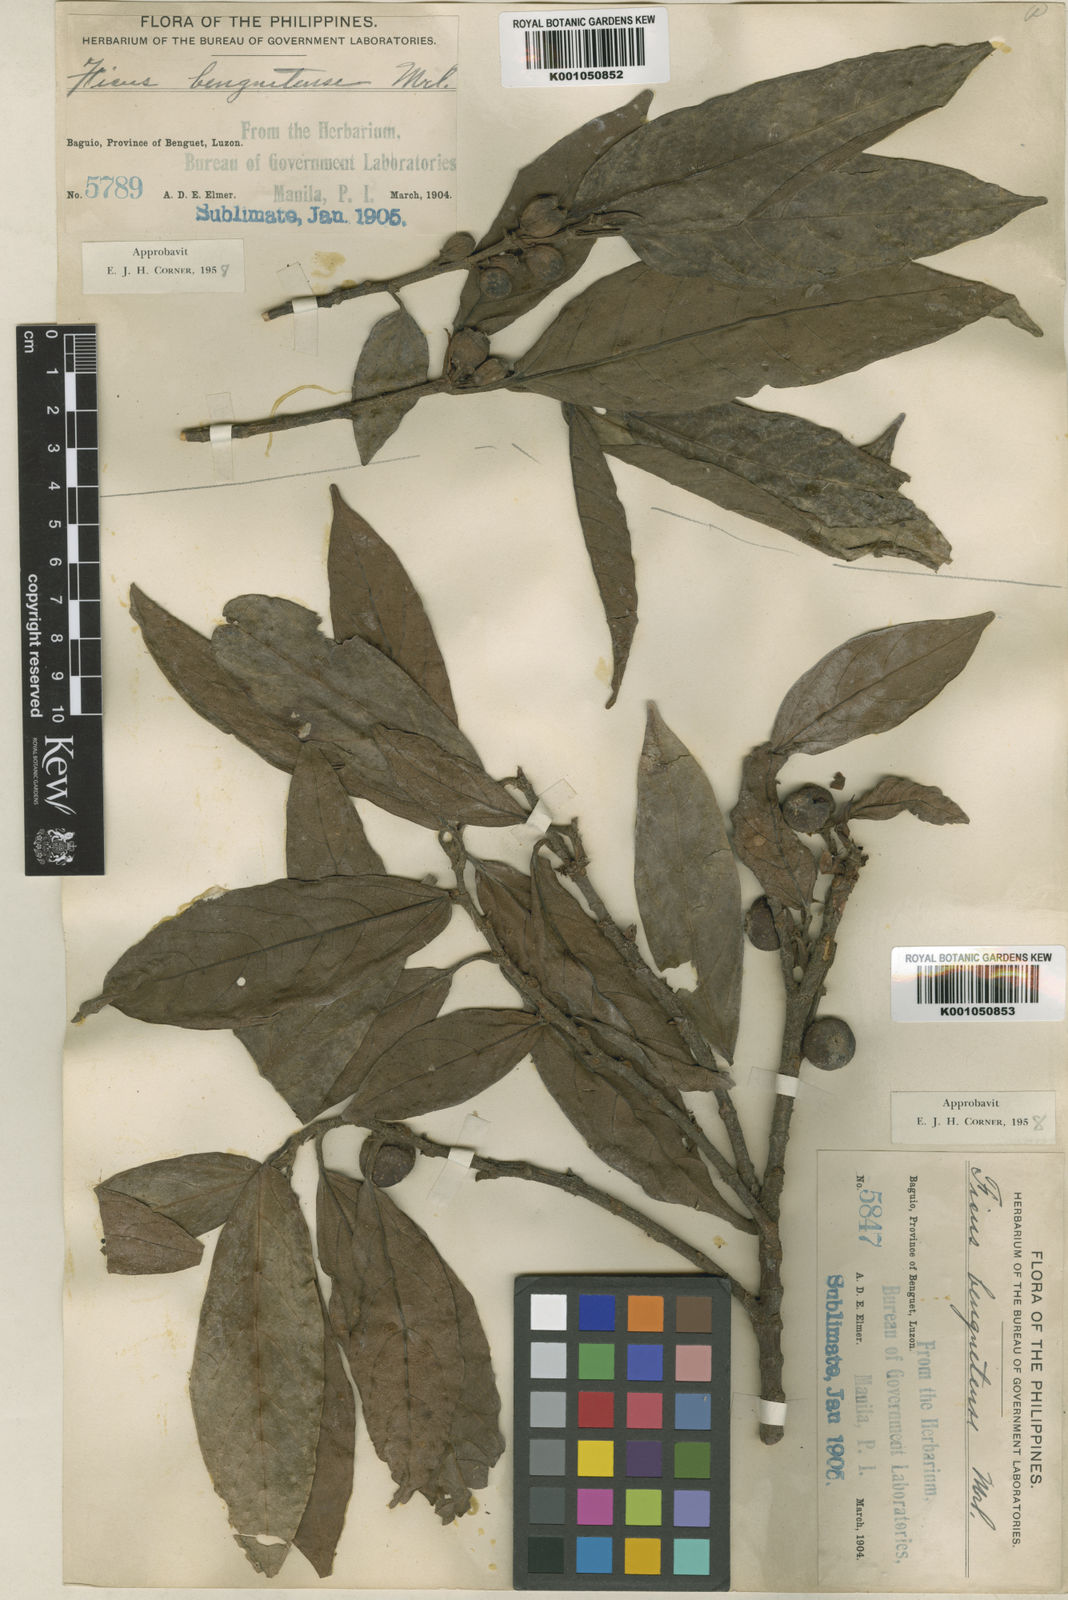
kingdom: Plantae
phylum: Tracheophyta
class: Magnoliopsida
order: Rosales
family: Moraceae
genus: Ficus
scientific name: Ficus benguetensis
